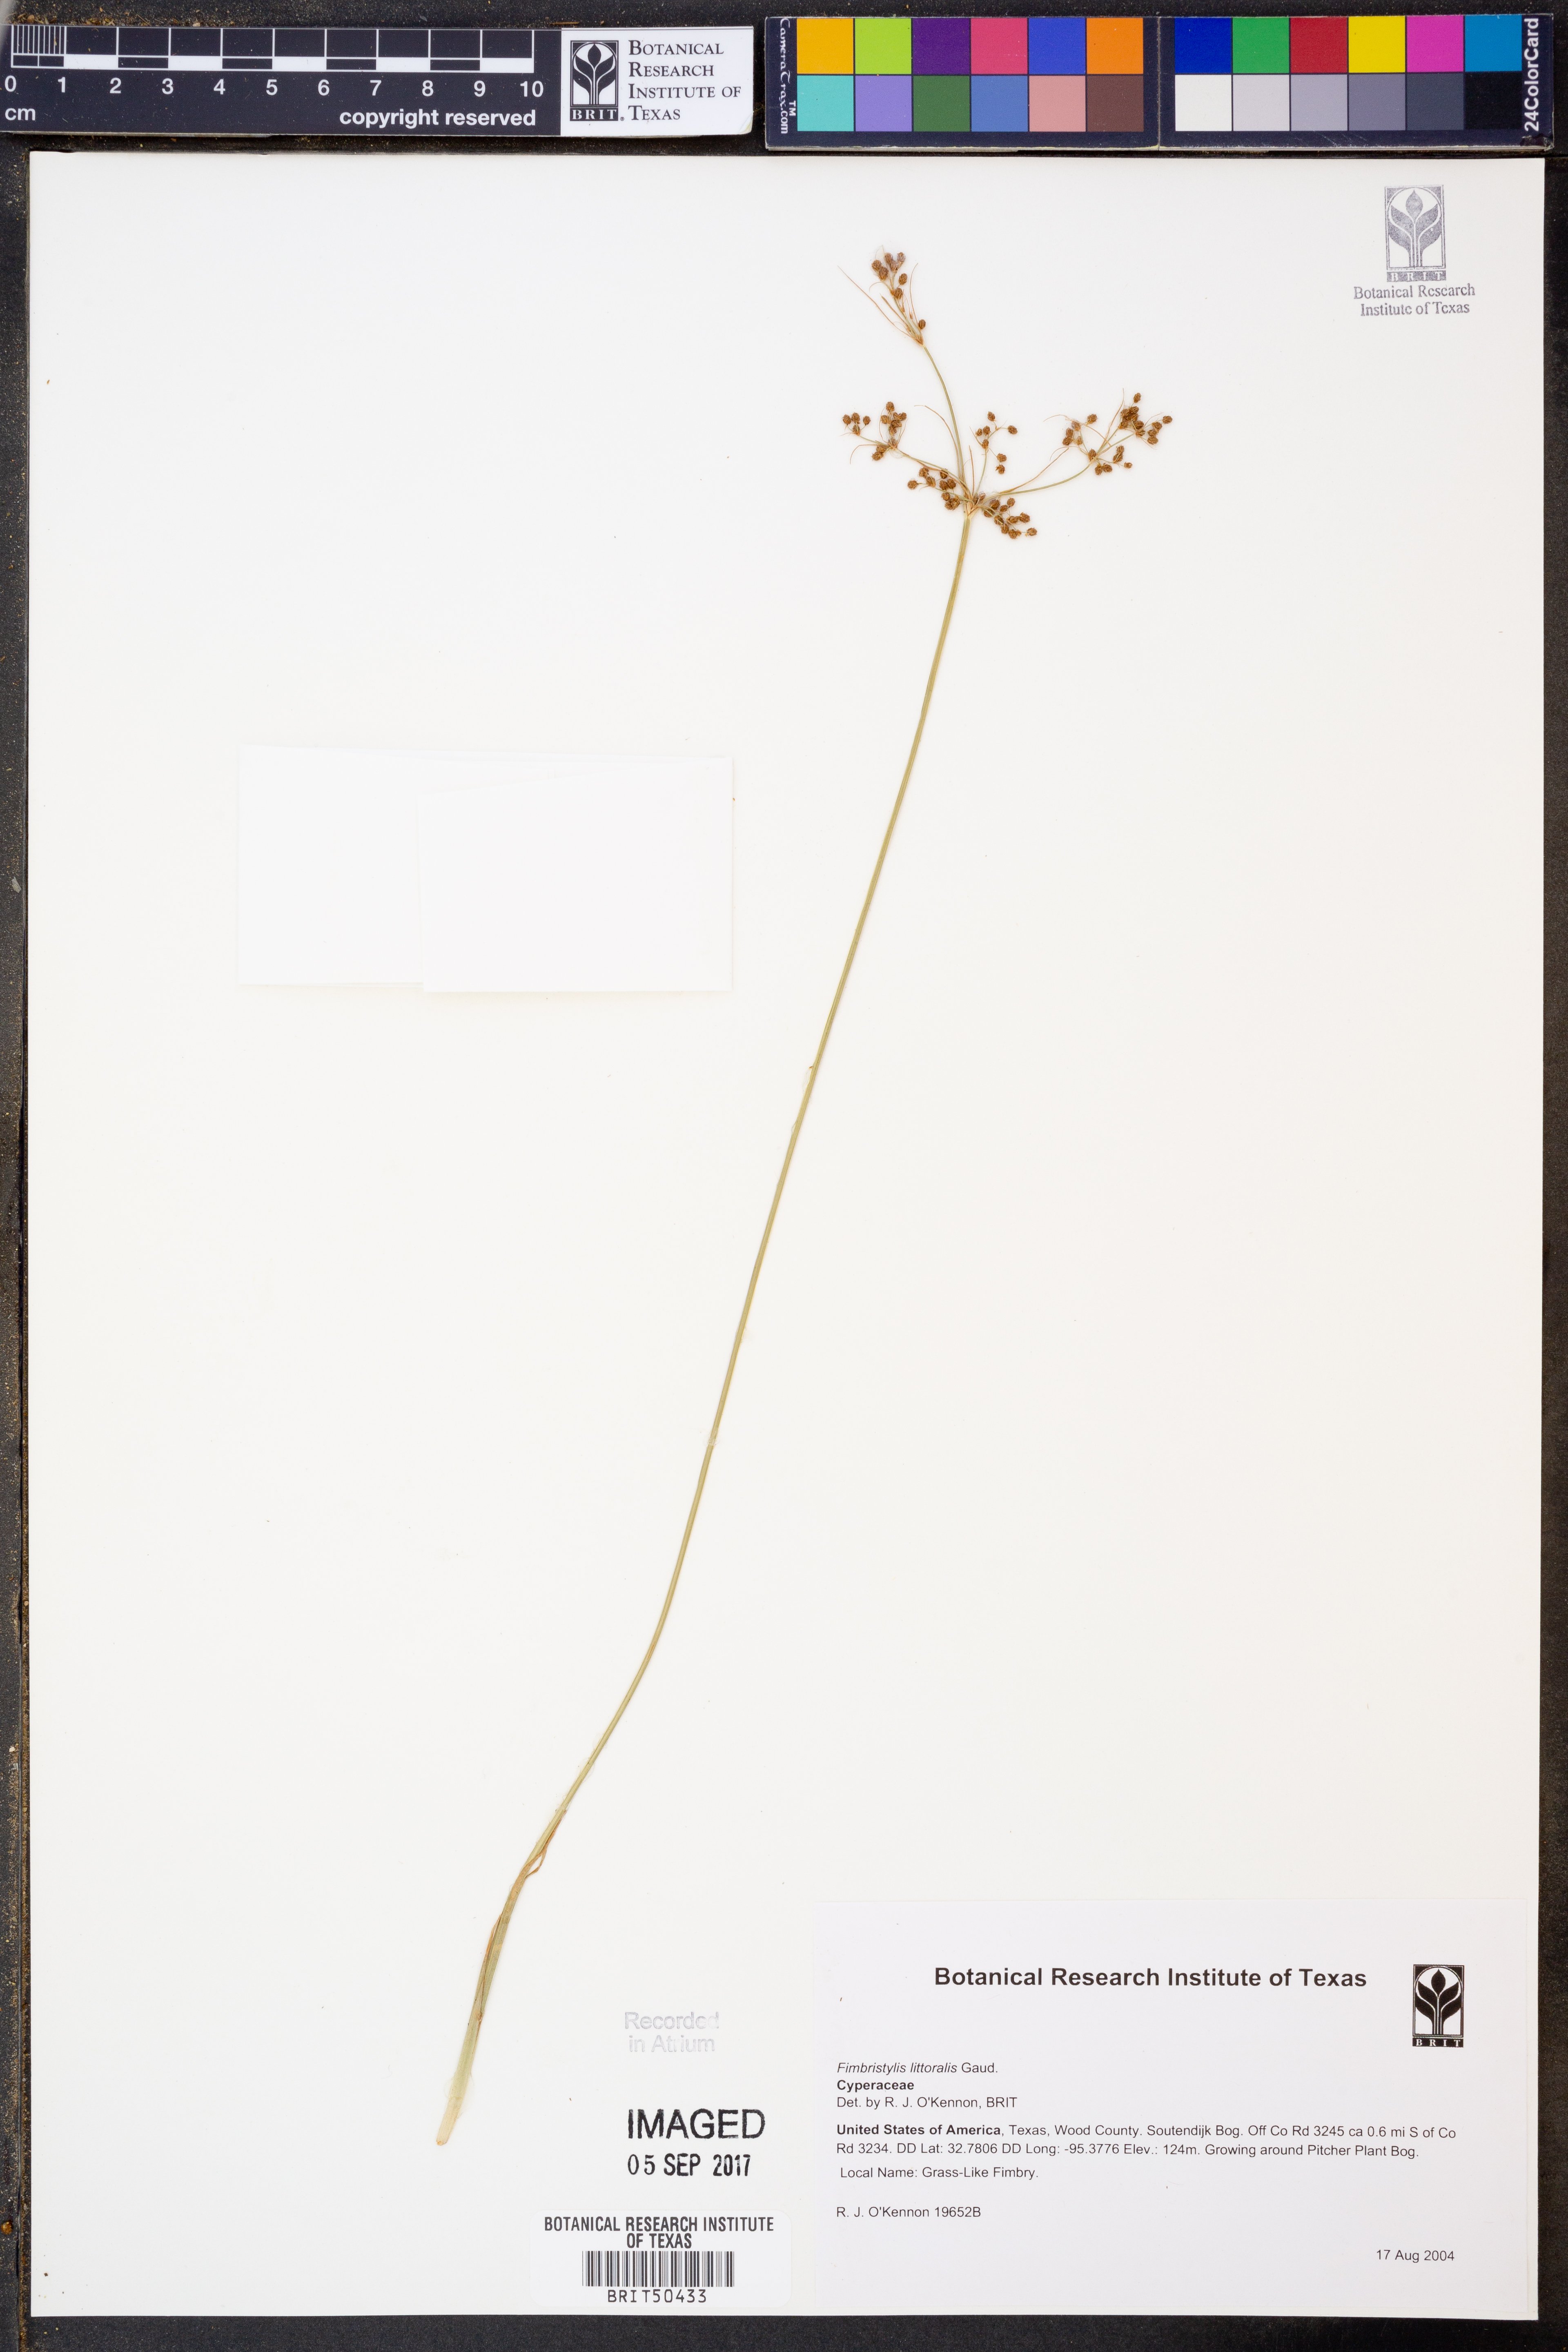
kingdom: Plantae
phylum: Tracheophyta
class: Liliopsida
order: Poales
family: Cyperaceae
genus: Fimbristylis
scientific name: Fimbristylis littoralis
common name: Fimbry
